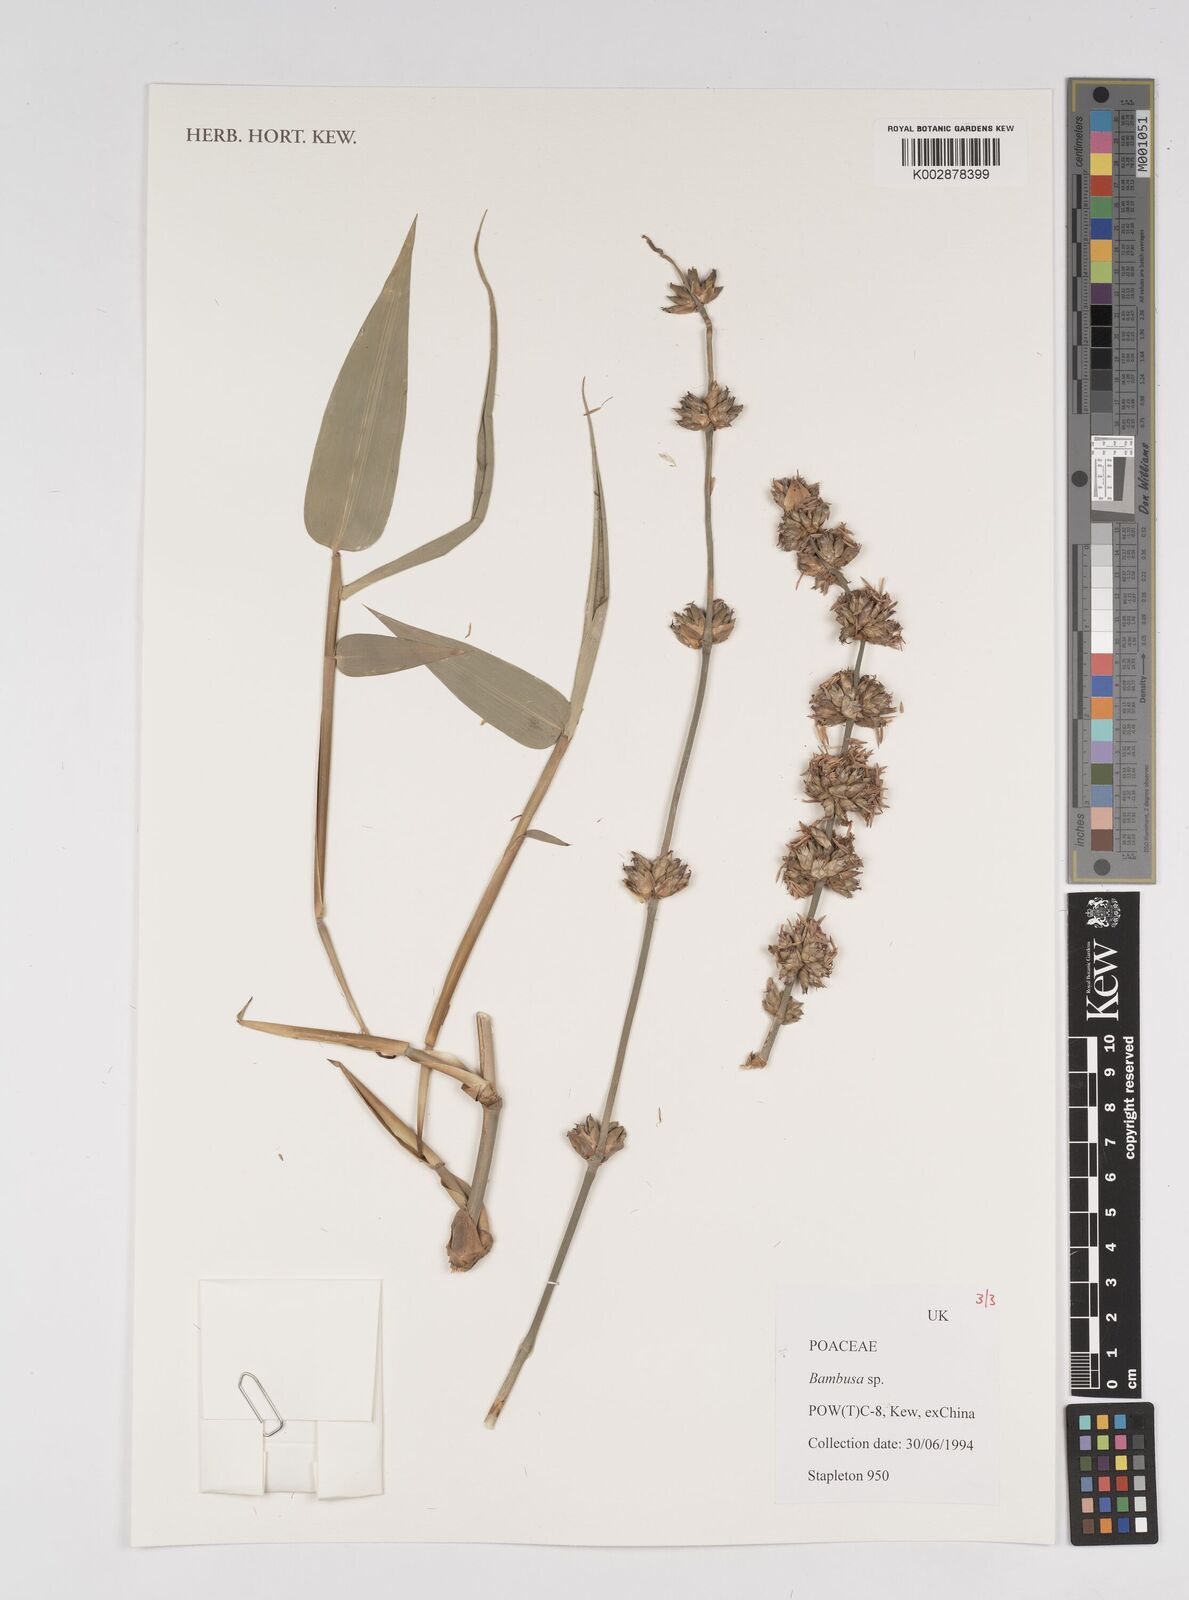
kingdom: Plantae
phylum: Tracheophyta
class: Liliopsida
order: Poales
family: Poaceae
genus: Bambusa
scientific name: Bambusa
